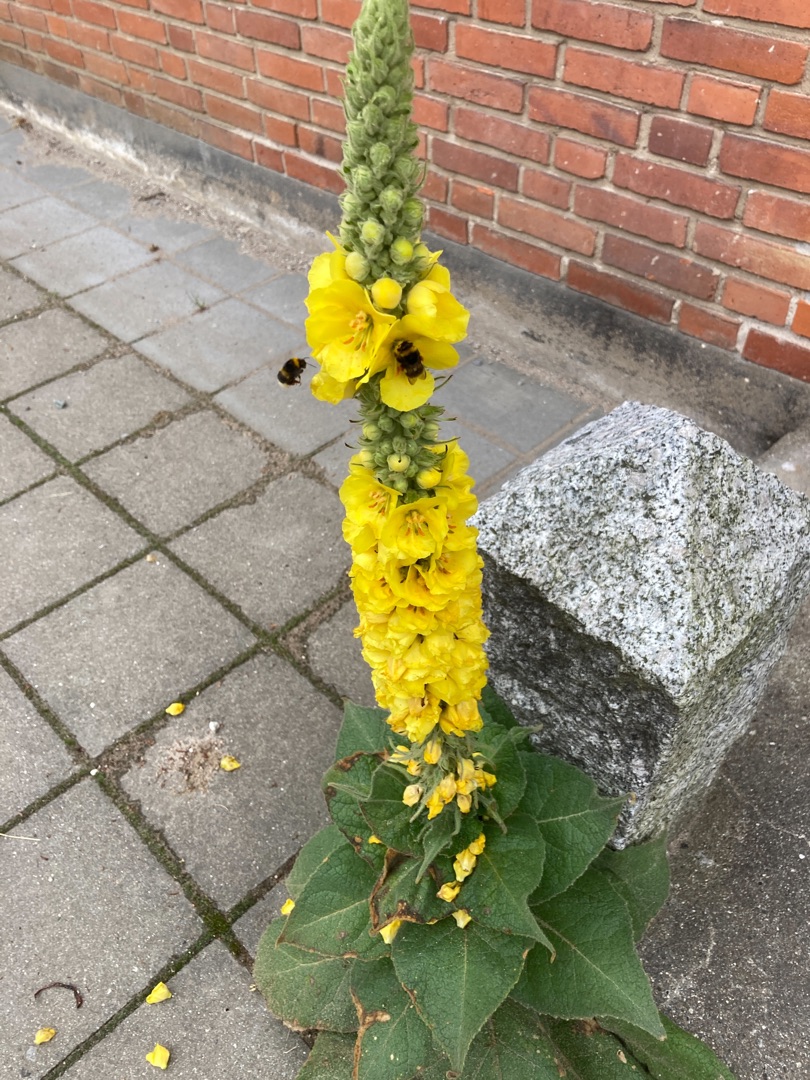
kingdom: Plantae
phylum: Tracheophyta
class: Magnoliopsida
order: Lamiales
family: Scrophulariaceae
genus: Verbascum
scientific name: Verbascum densiflorum
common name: Uldbladet kongelys
